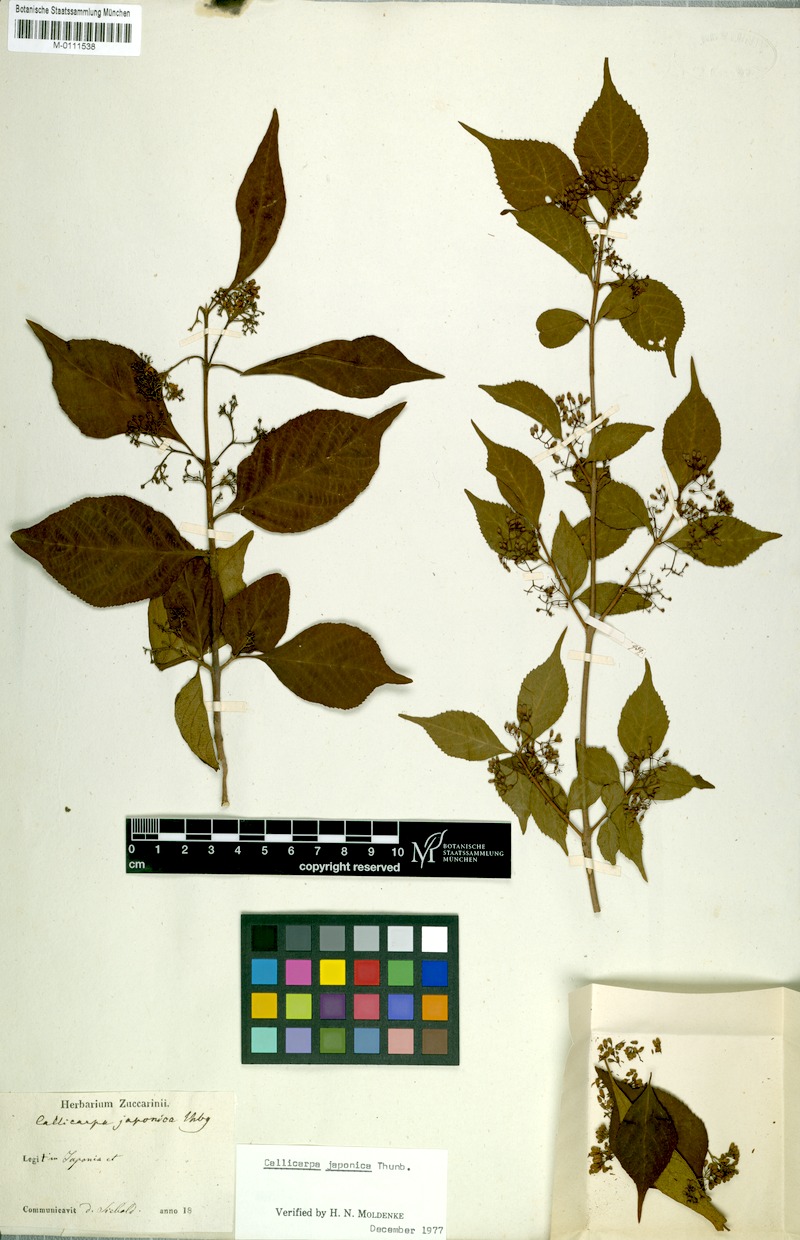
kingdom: Plantae
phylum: Tracheophyta
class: Magnoliopsida
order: Lamiales
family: Lamiaceae
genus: Callicarpa
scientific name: Callicarpa japonica
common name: Japanese beauty-berry
